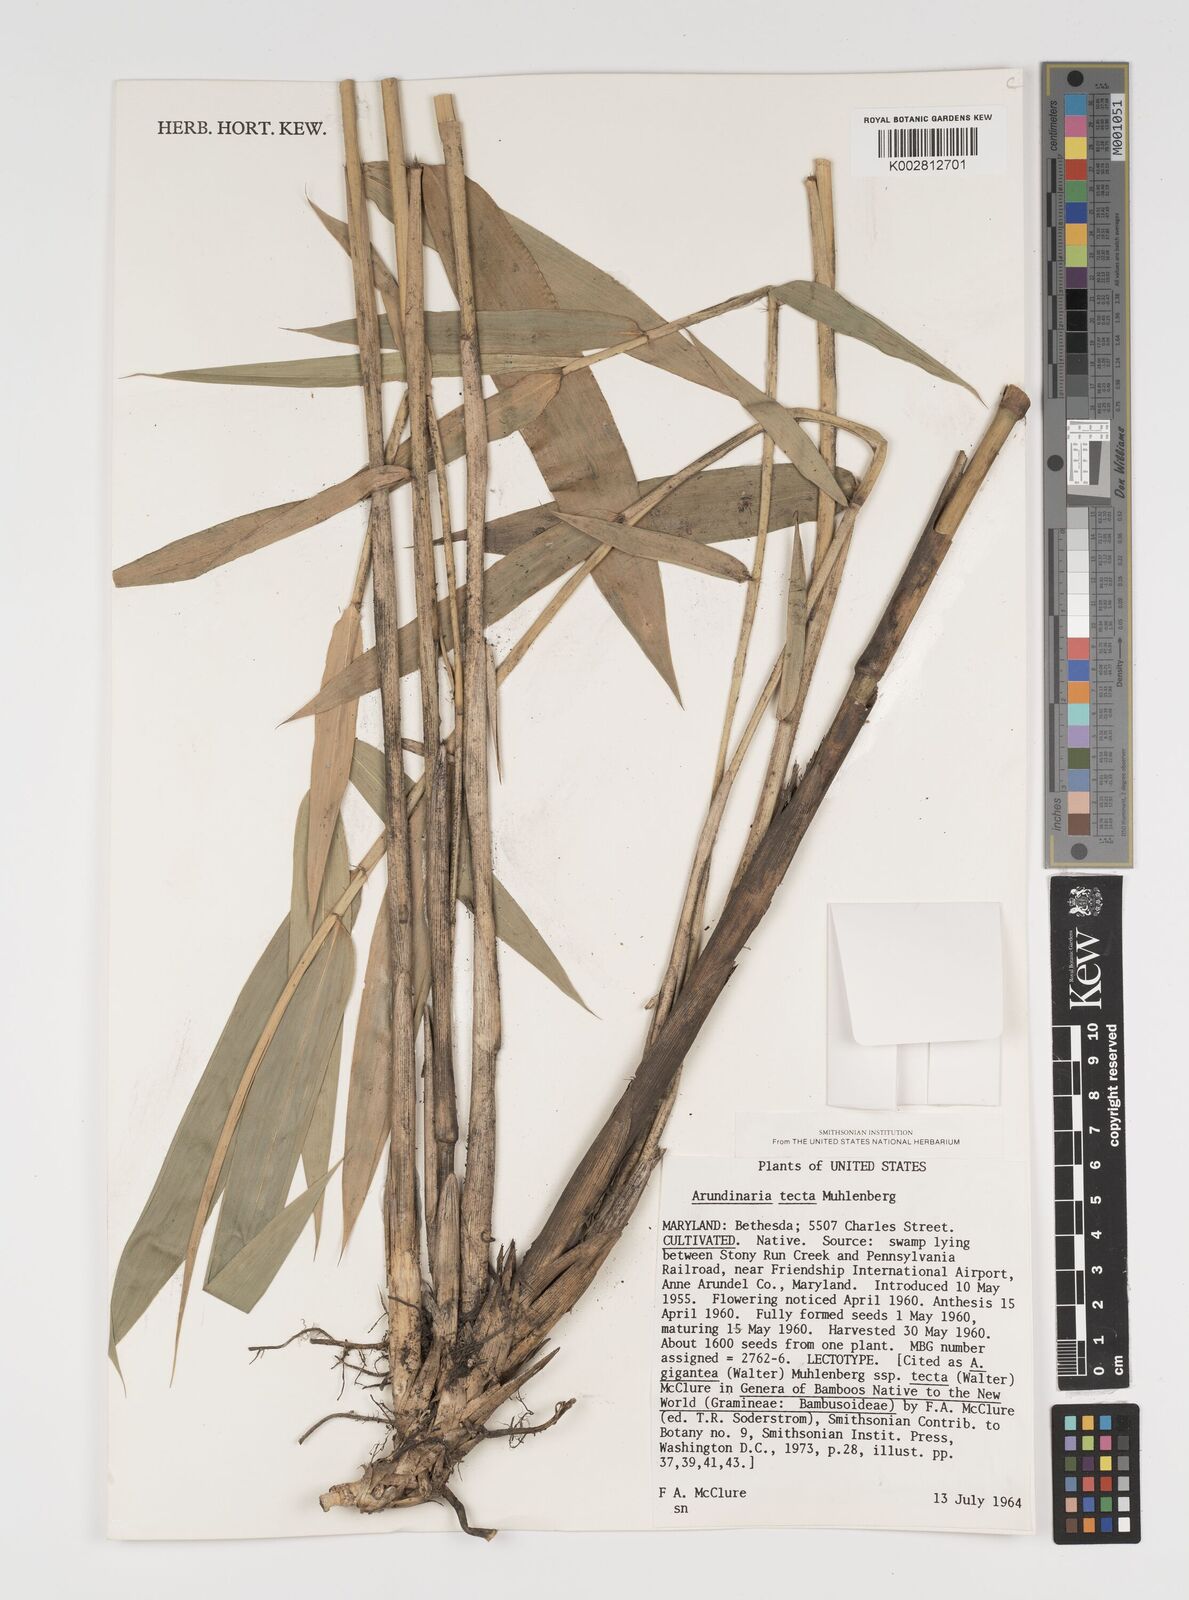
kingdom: Plantae
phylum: Tracheophyta
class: Liliopsida
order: Poales
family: Poaceae
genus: Arundinaria
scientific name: Arundinaria tecta
